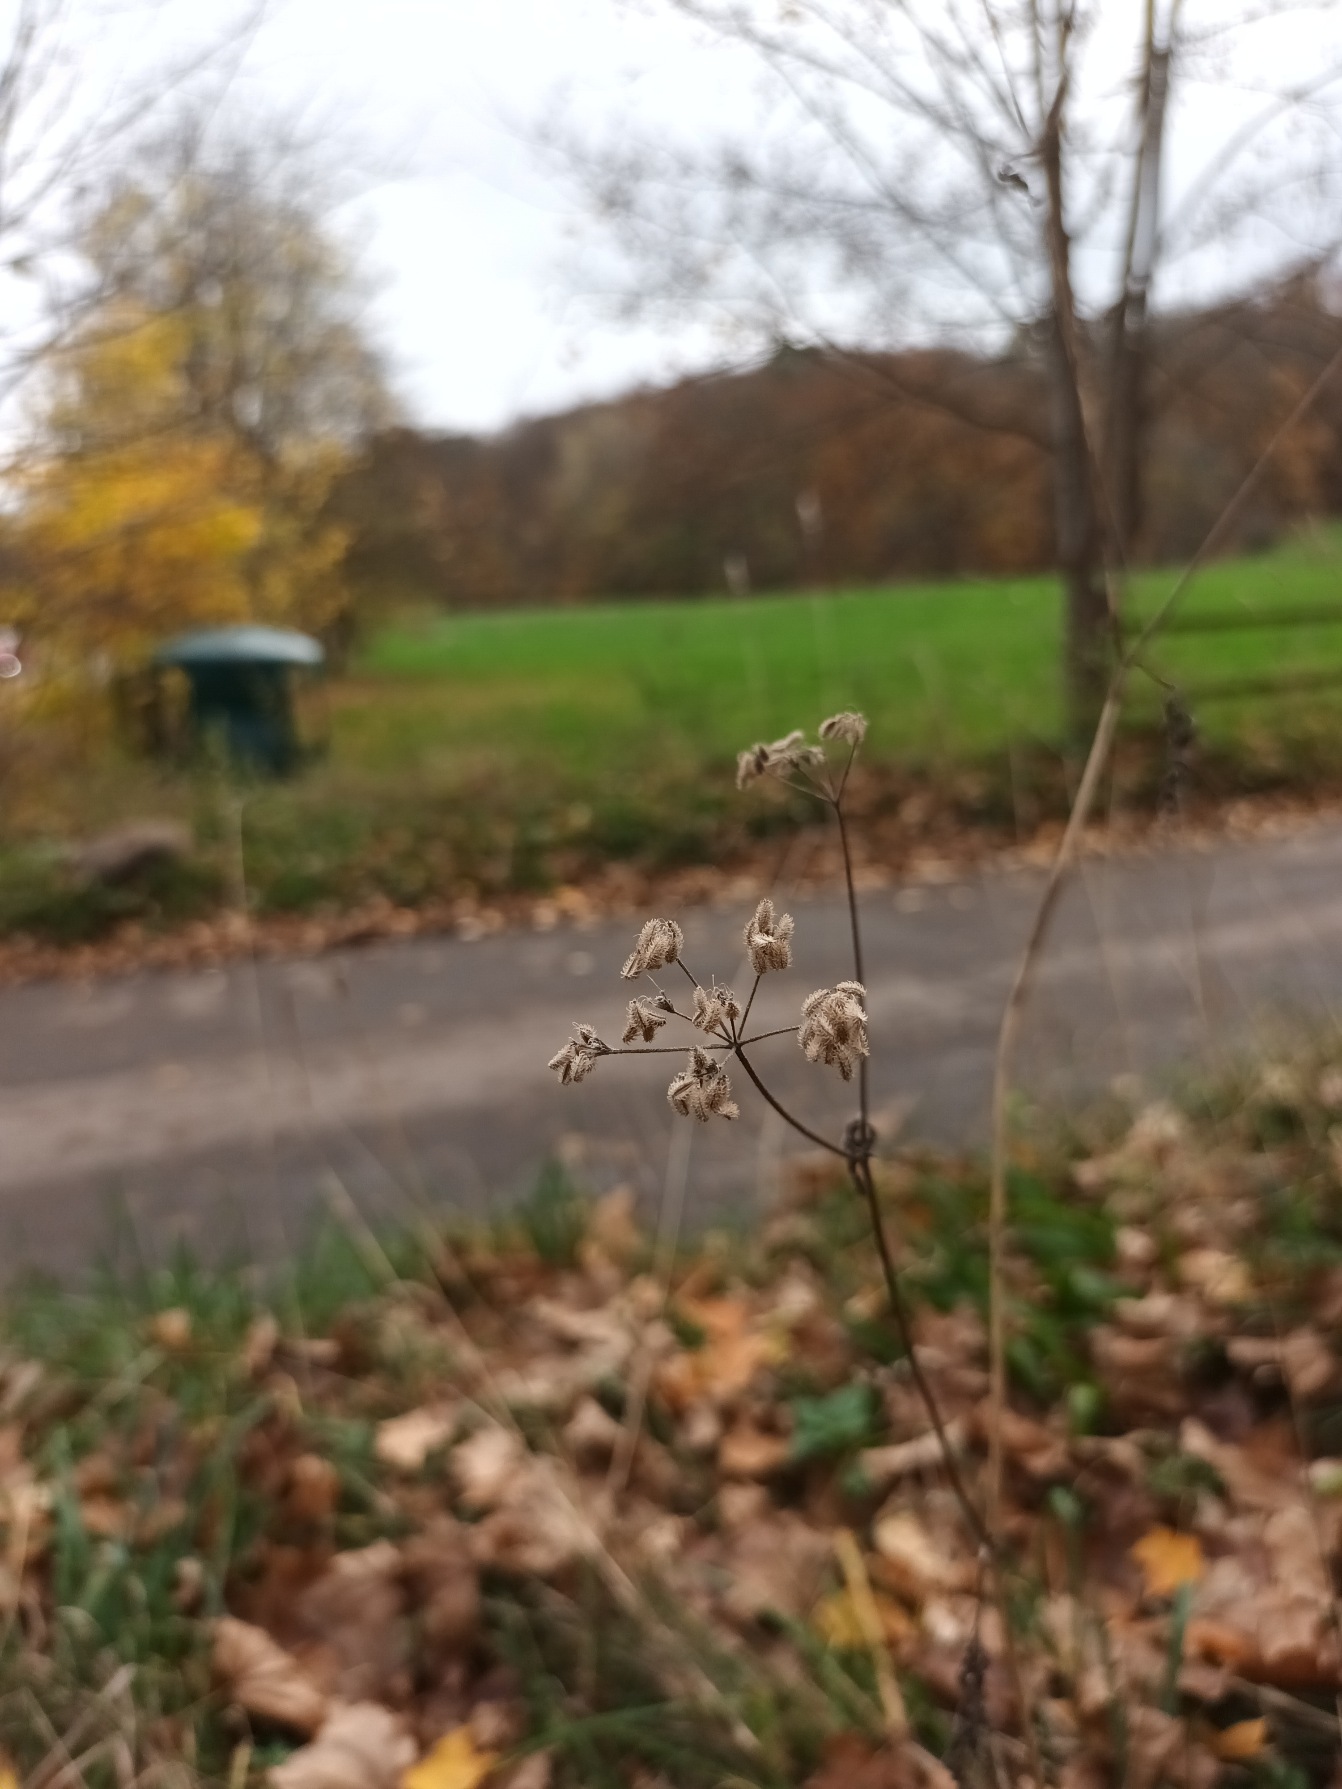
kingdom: Plantae
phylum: Tracheophyta
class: Magnoliopsida
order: Apiales
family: Apiaceae
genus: Torilis
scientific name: Torilis japonica
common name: Hvas randfrø
